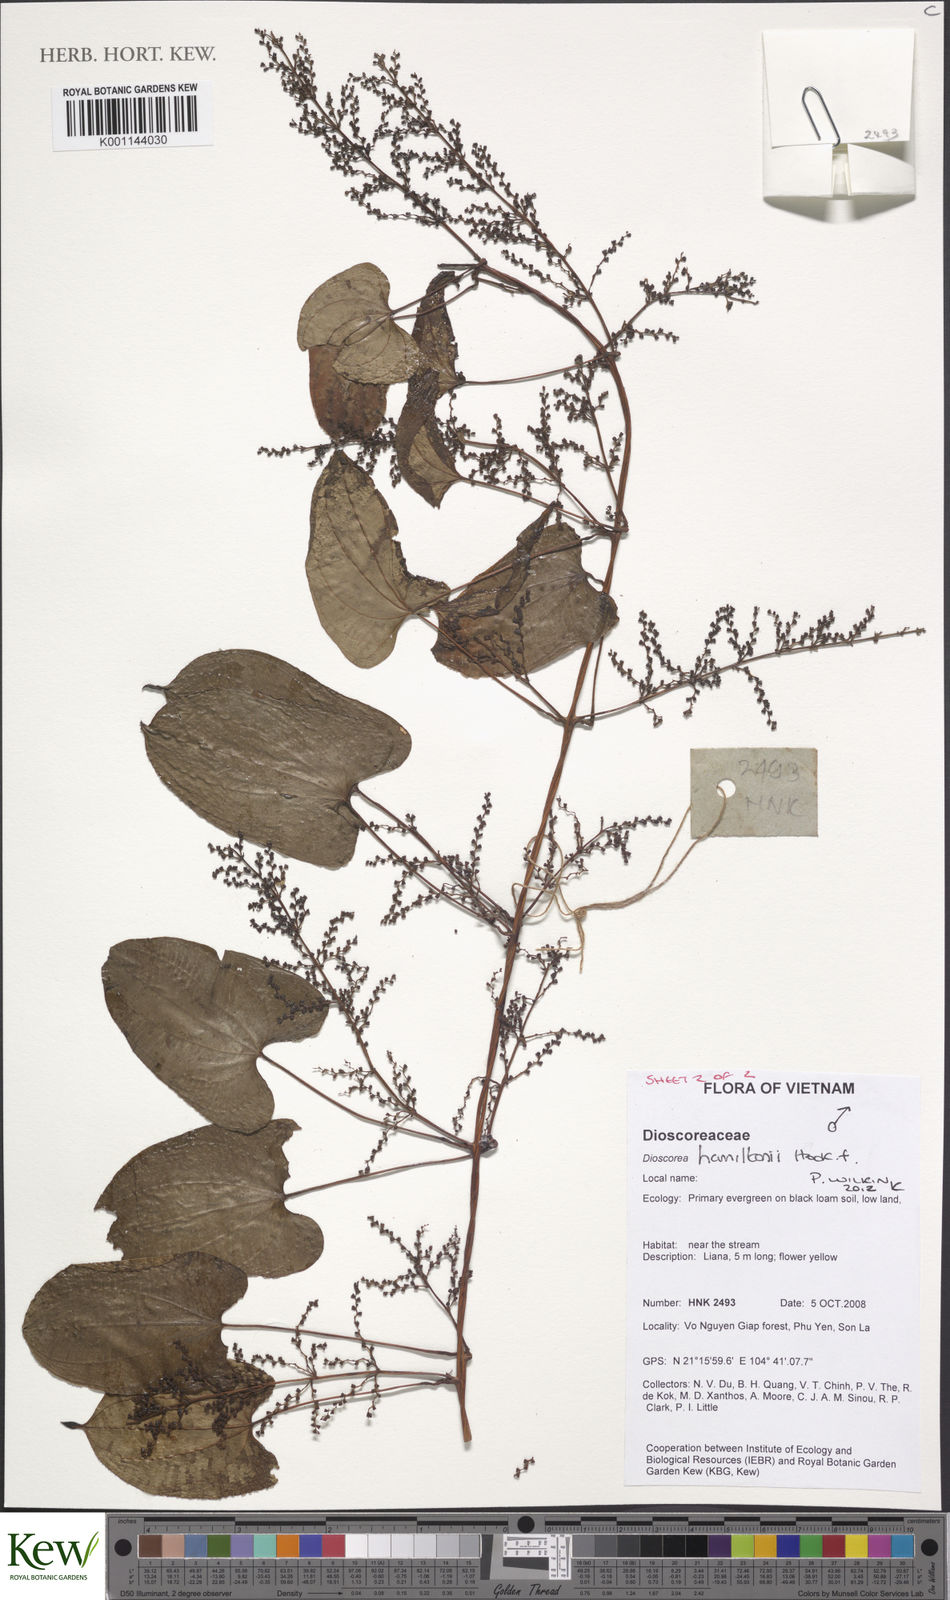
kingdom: Plantae
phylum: Tracheophyta
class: Liliopsida
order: Dioscoreales
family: Dioscoreaceae
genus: Dioscorea
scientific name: Dioscorea hamiltonii
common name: Mountain yam
